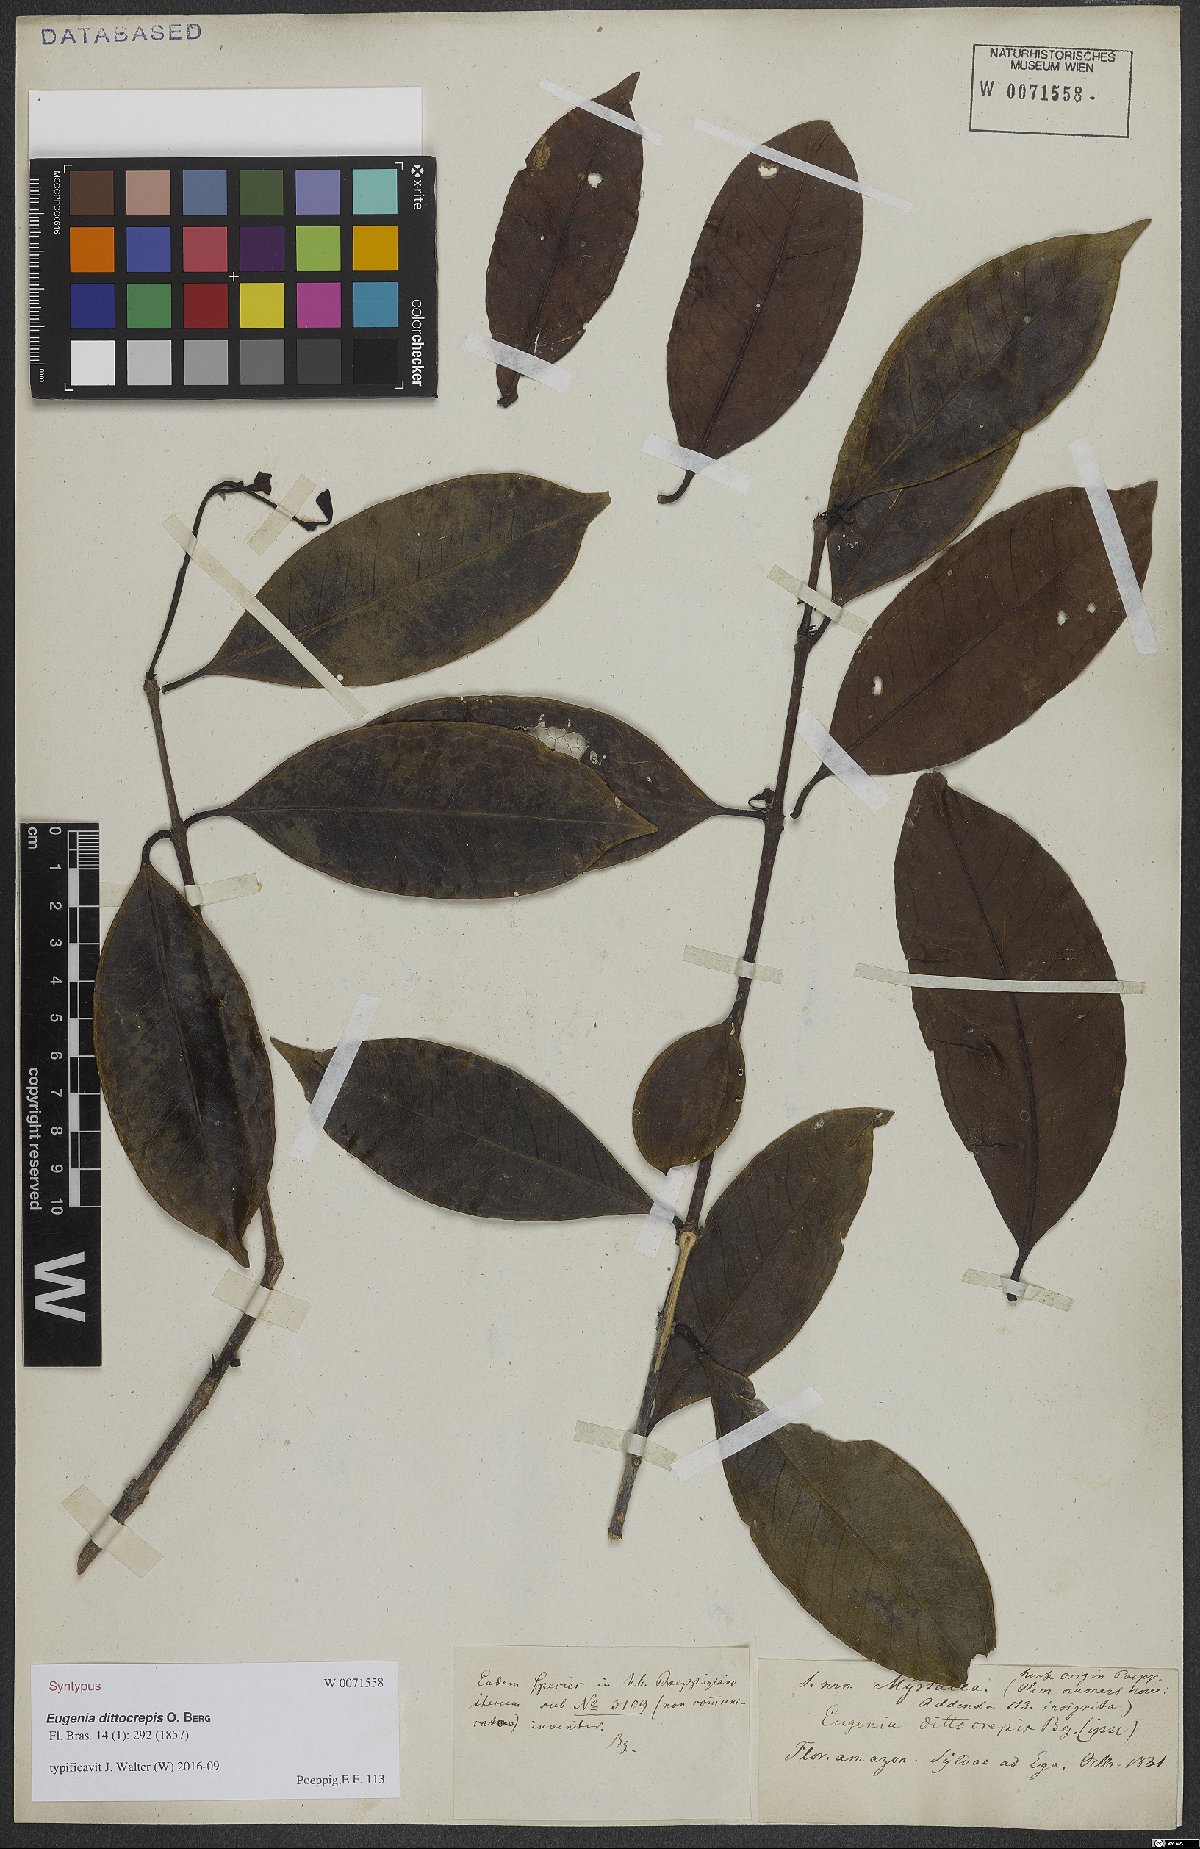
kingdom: Plantae
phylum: Tracheophyta
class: Magnoliopsida
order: Myrtales
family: Myrtaceae
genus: Eugenia
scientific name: Eugenia dittocrepis
